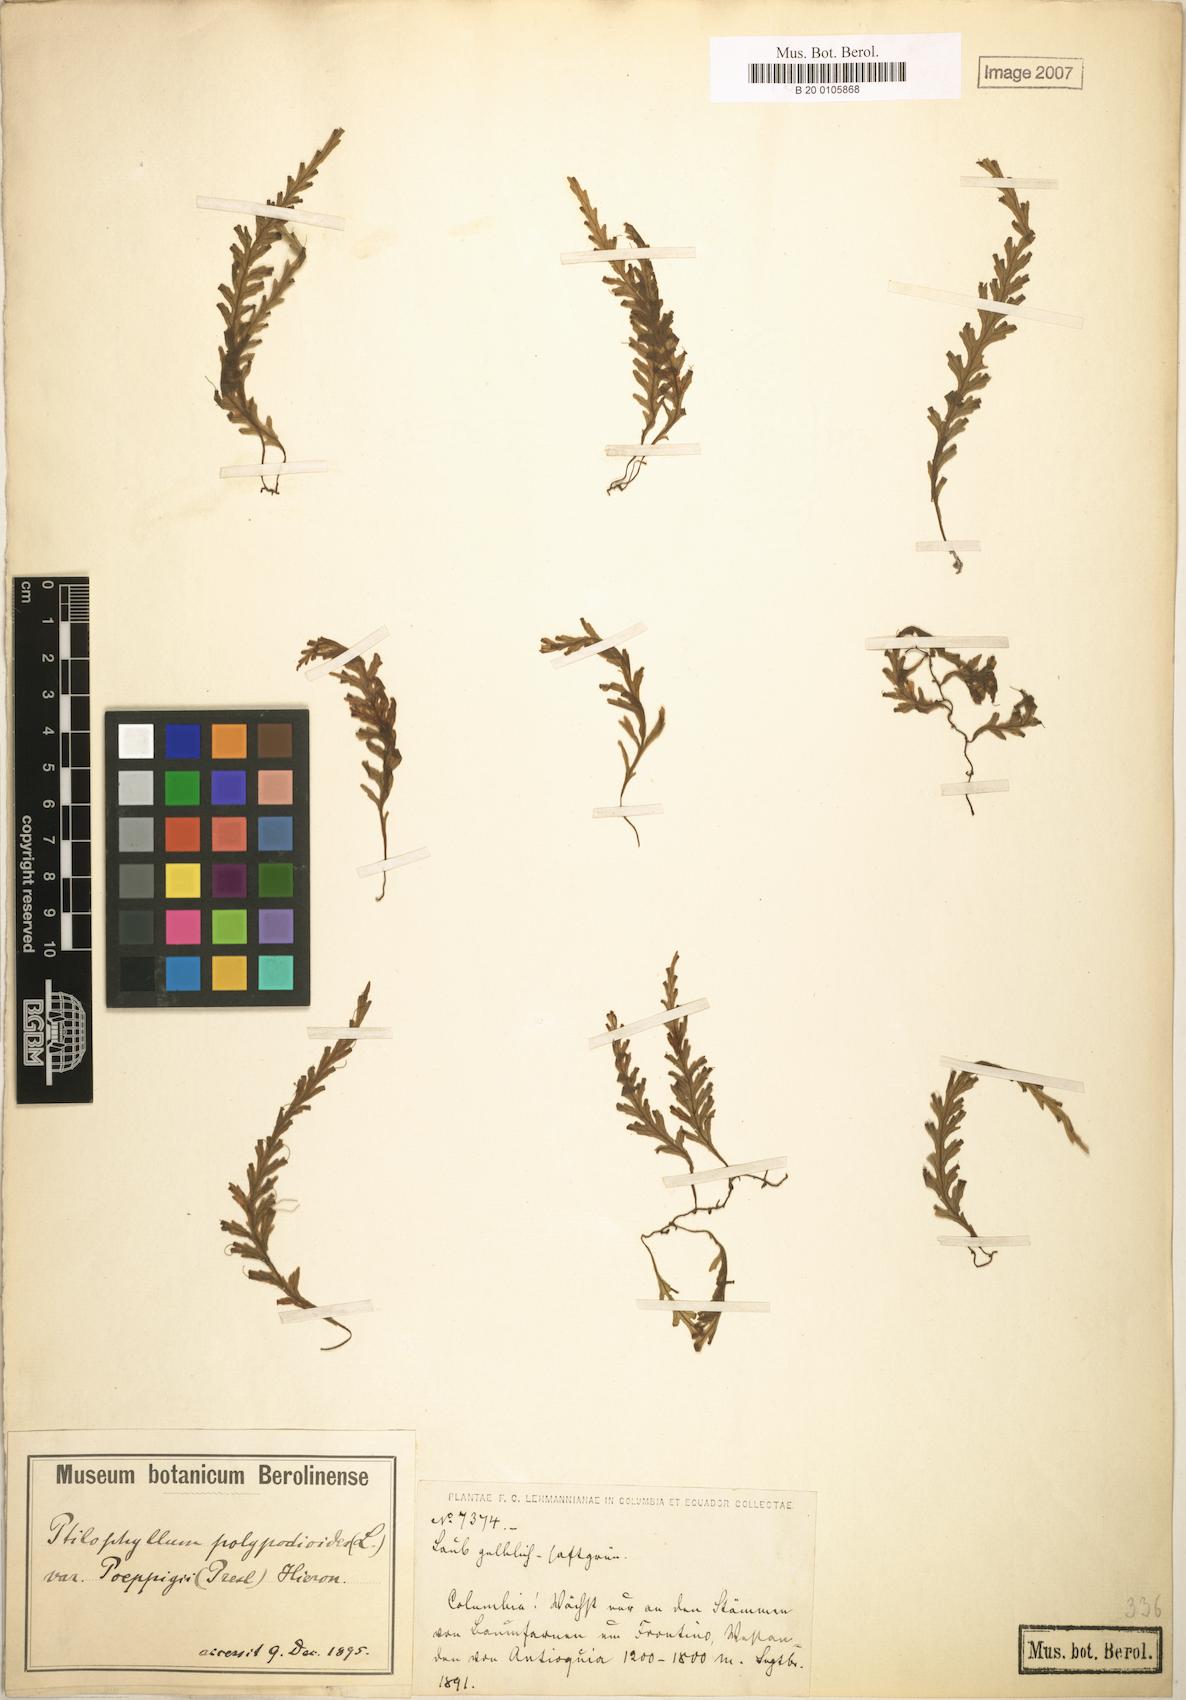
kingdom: Plantae
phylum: Tracheophyta
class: Polypodiopsida
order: Hymenophyllales
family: Hymenophyllaceae
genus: Trichomanes
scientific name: Trichomanes poeppigii
